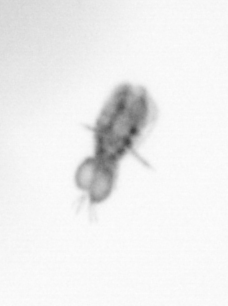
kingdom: Animalia
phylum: Arthropoda
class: Copepoda
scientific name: Copepoda
